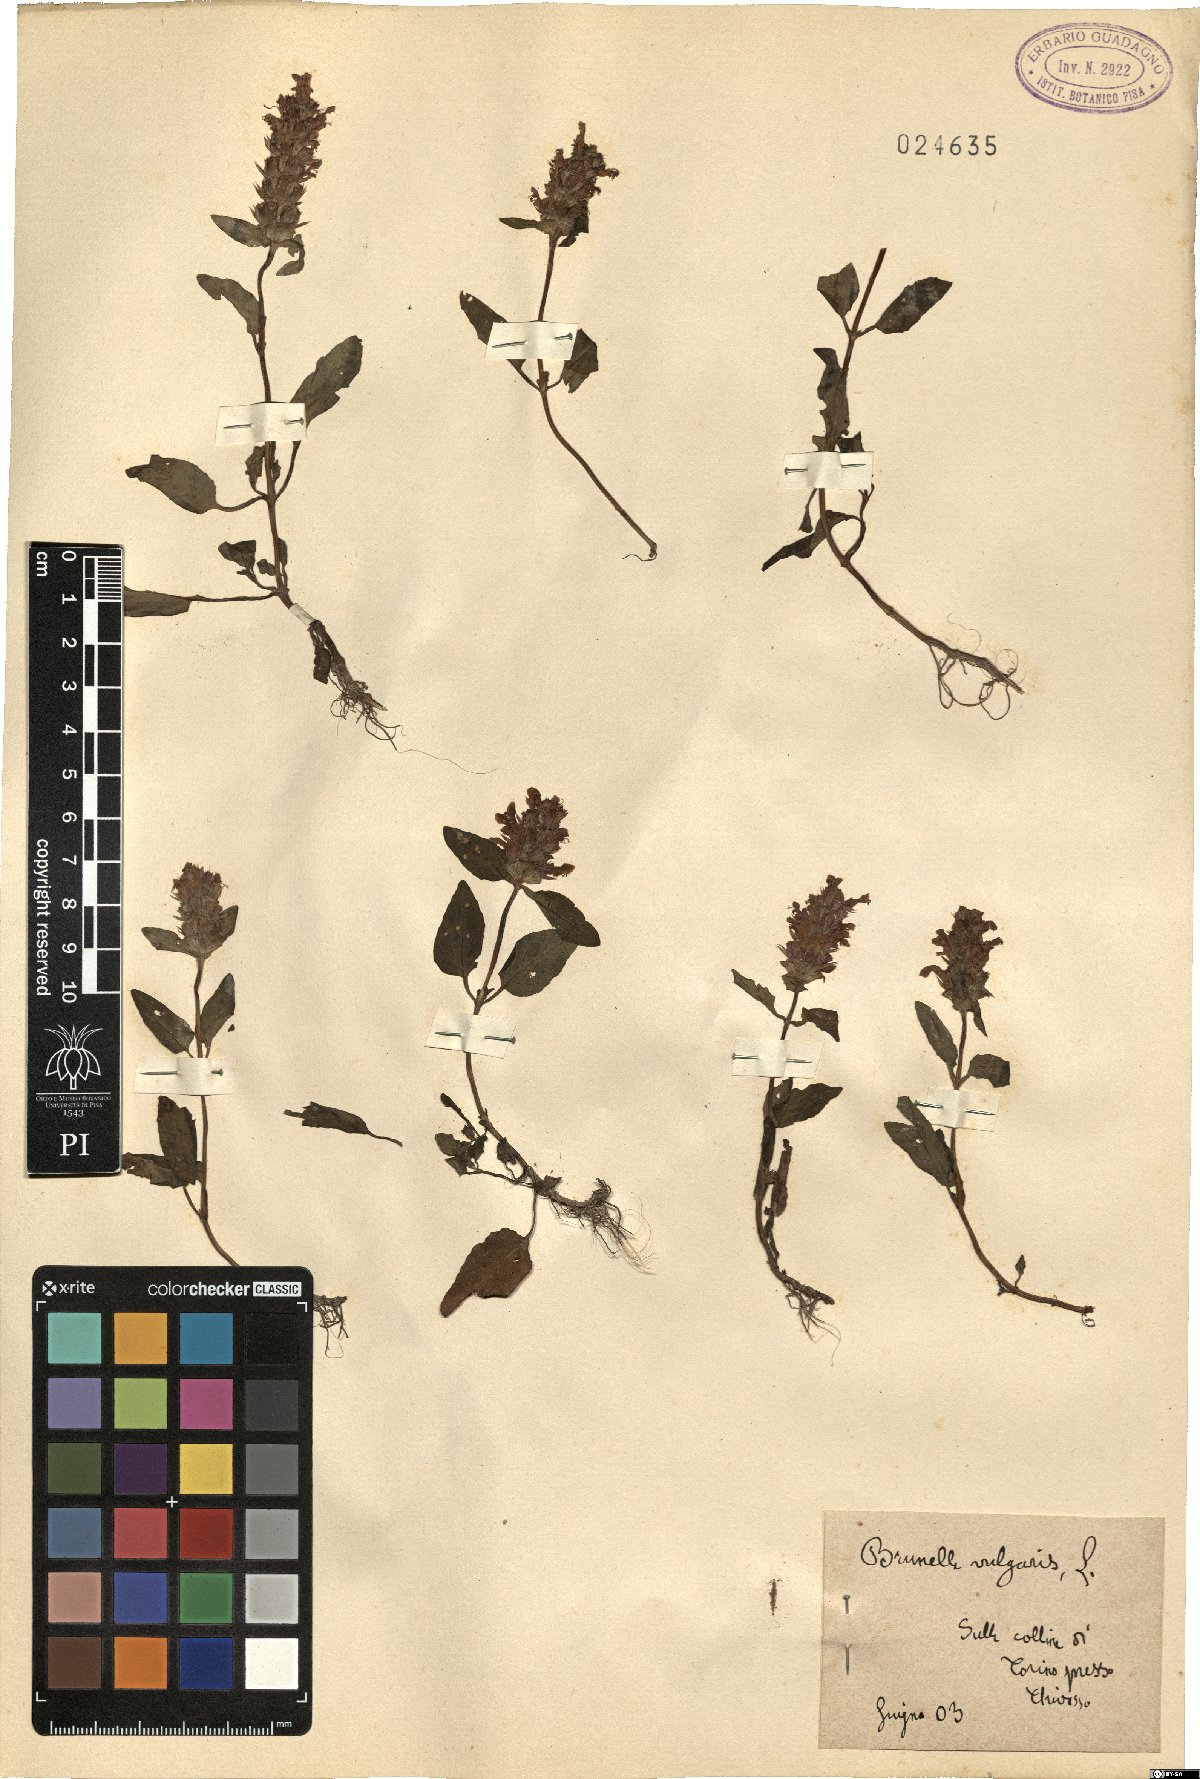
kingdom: Plantae
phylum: Tracheophyta
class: Magnoliopsida
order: Lamiales
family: Lamiaceae
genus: Prunella
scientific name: Prunella vulgaris
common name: Heal-all
